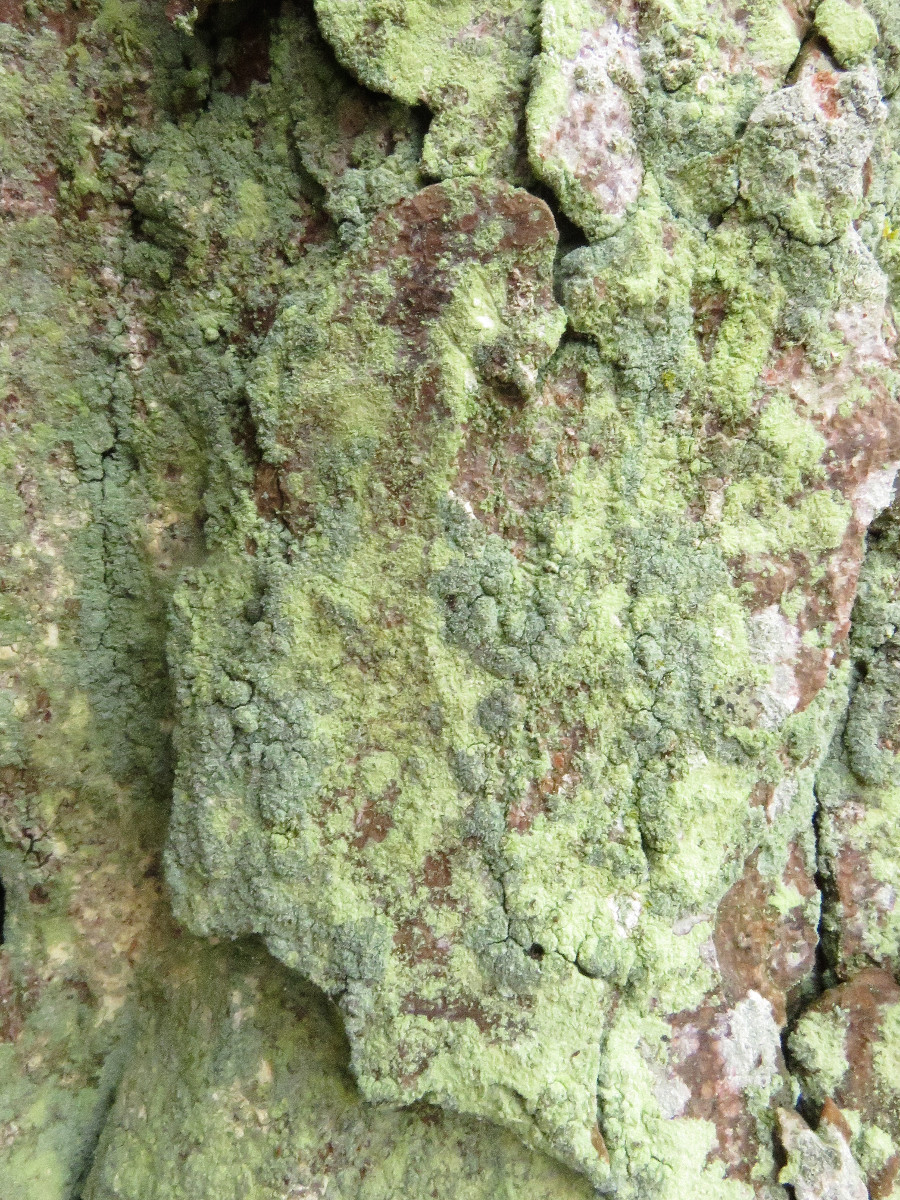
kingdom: Fungi
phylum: Ascomycota
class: Lecanoromycetes
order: Lecanorales
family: Stereocaulaceae
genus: Lepraria
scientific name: Lepraria
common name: støvlav
